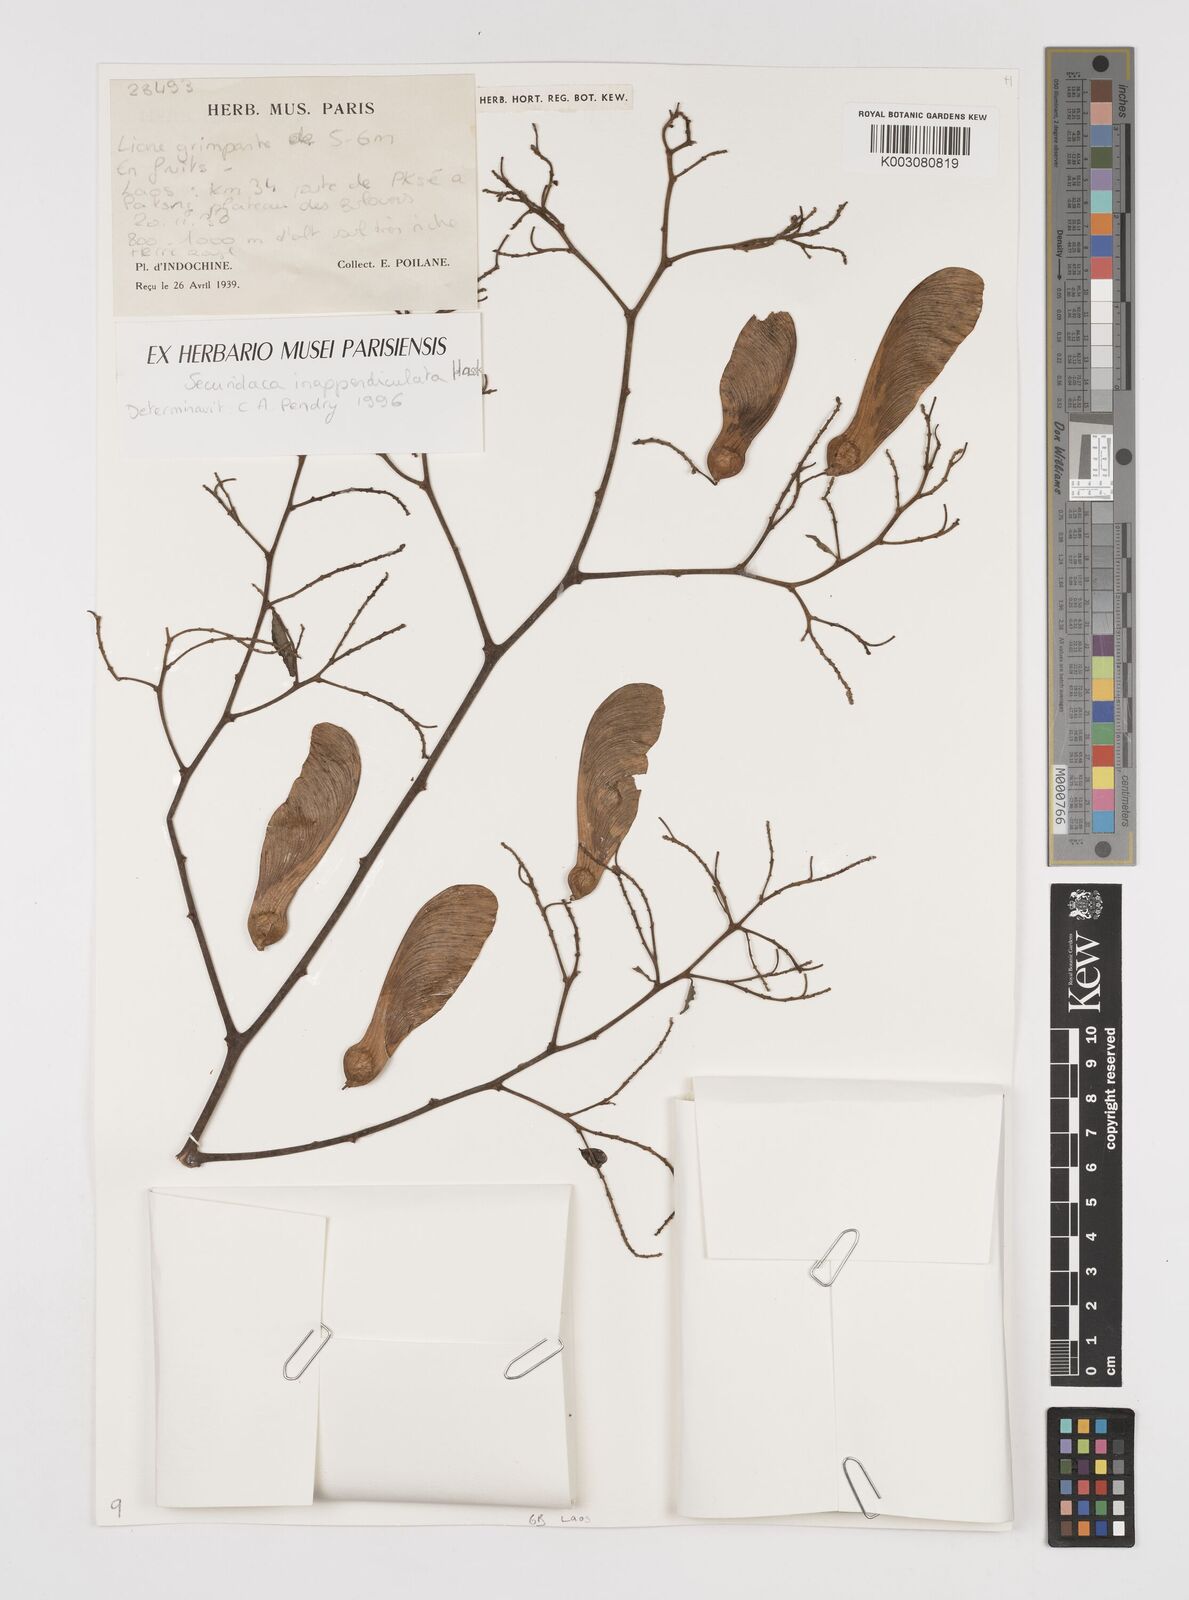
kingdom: Plantae
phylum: Tracheophyta
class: Magnoliopsida
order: Fabales
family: Polygalaceae
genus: Securidaca
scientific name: Securidaca inappendiculata
